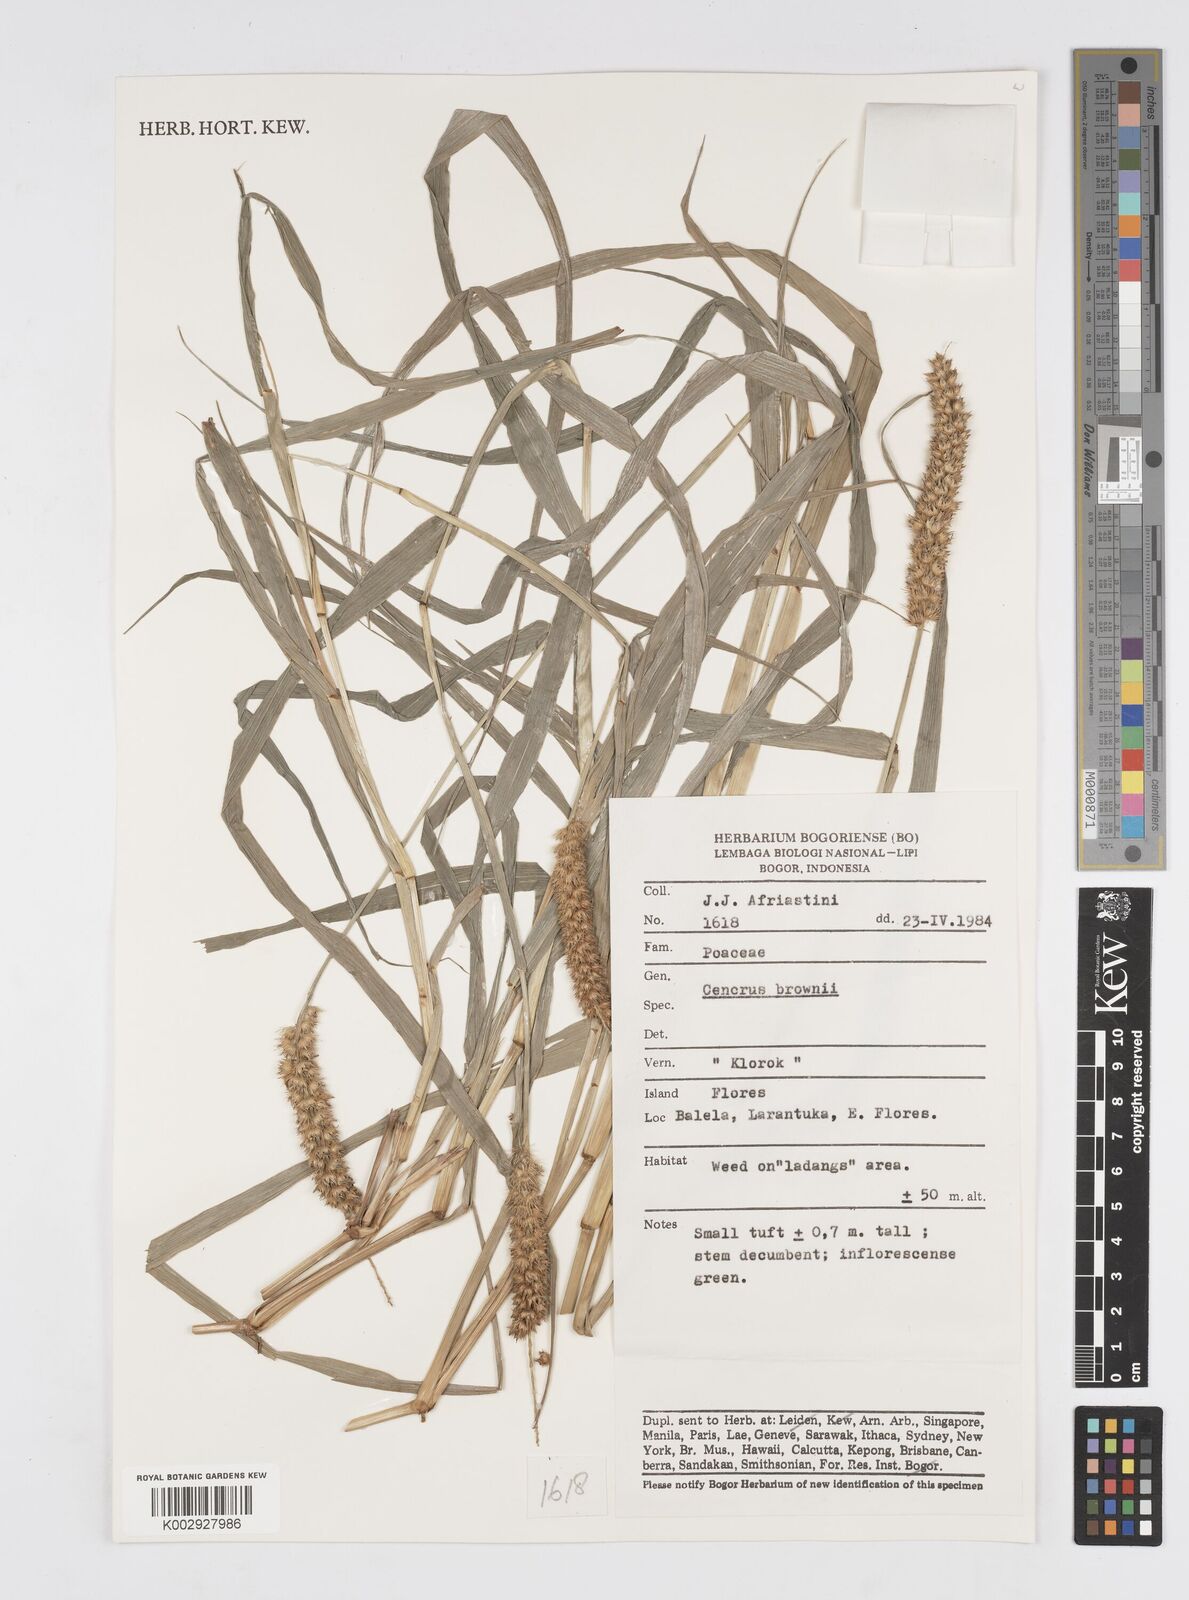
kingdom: Plantae
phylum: Tracheophyta
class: Liliopsida
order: Poales
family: Poaceae
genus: Cenchrus
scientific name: Cenchrus brownii
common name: Slim-bristle sandbur
